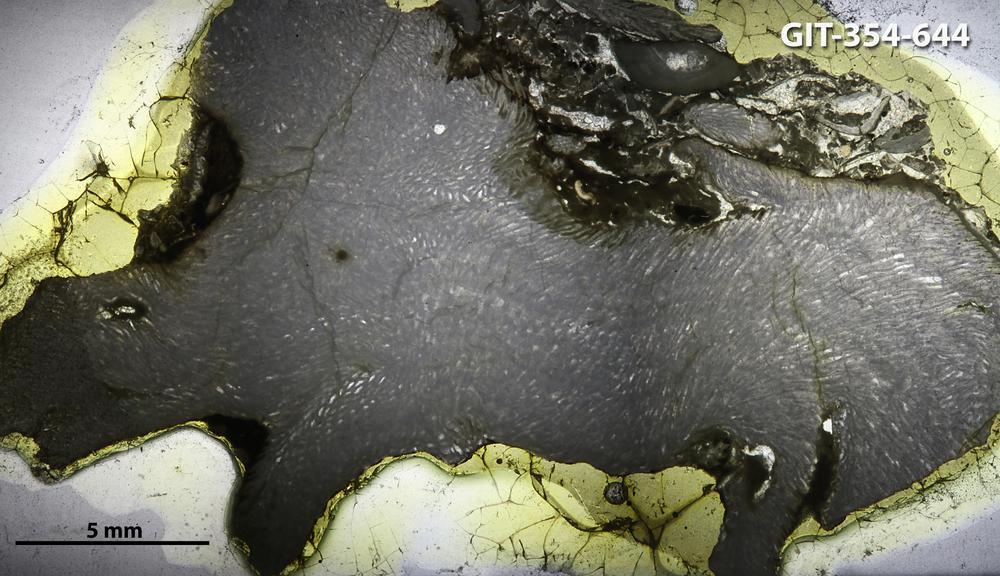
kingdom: Animalia
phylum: Porifera
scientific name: Porifera
